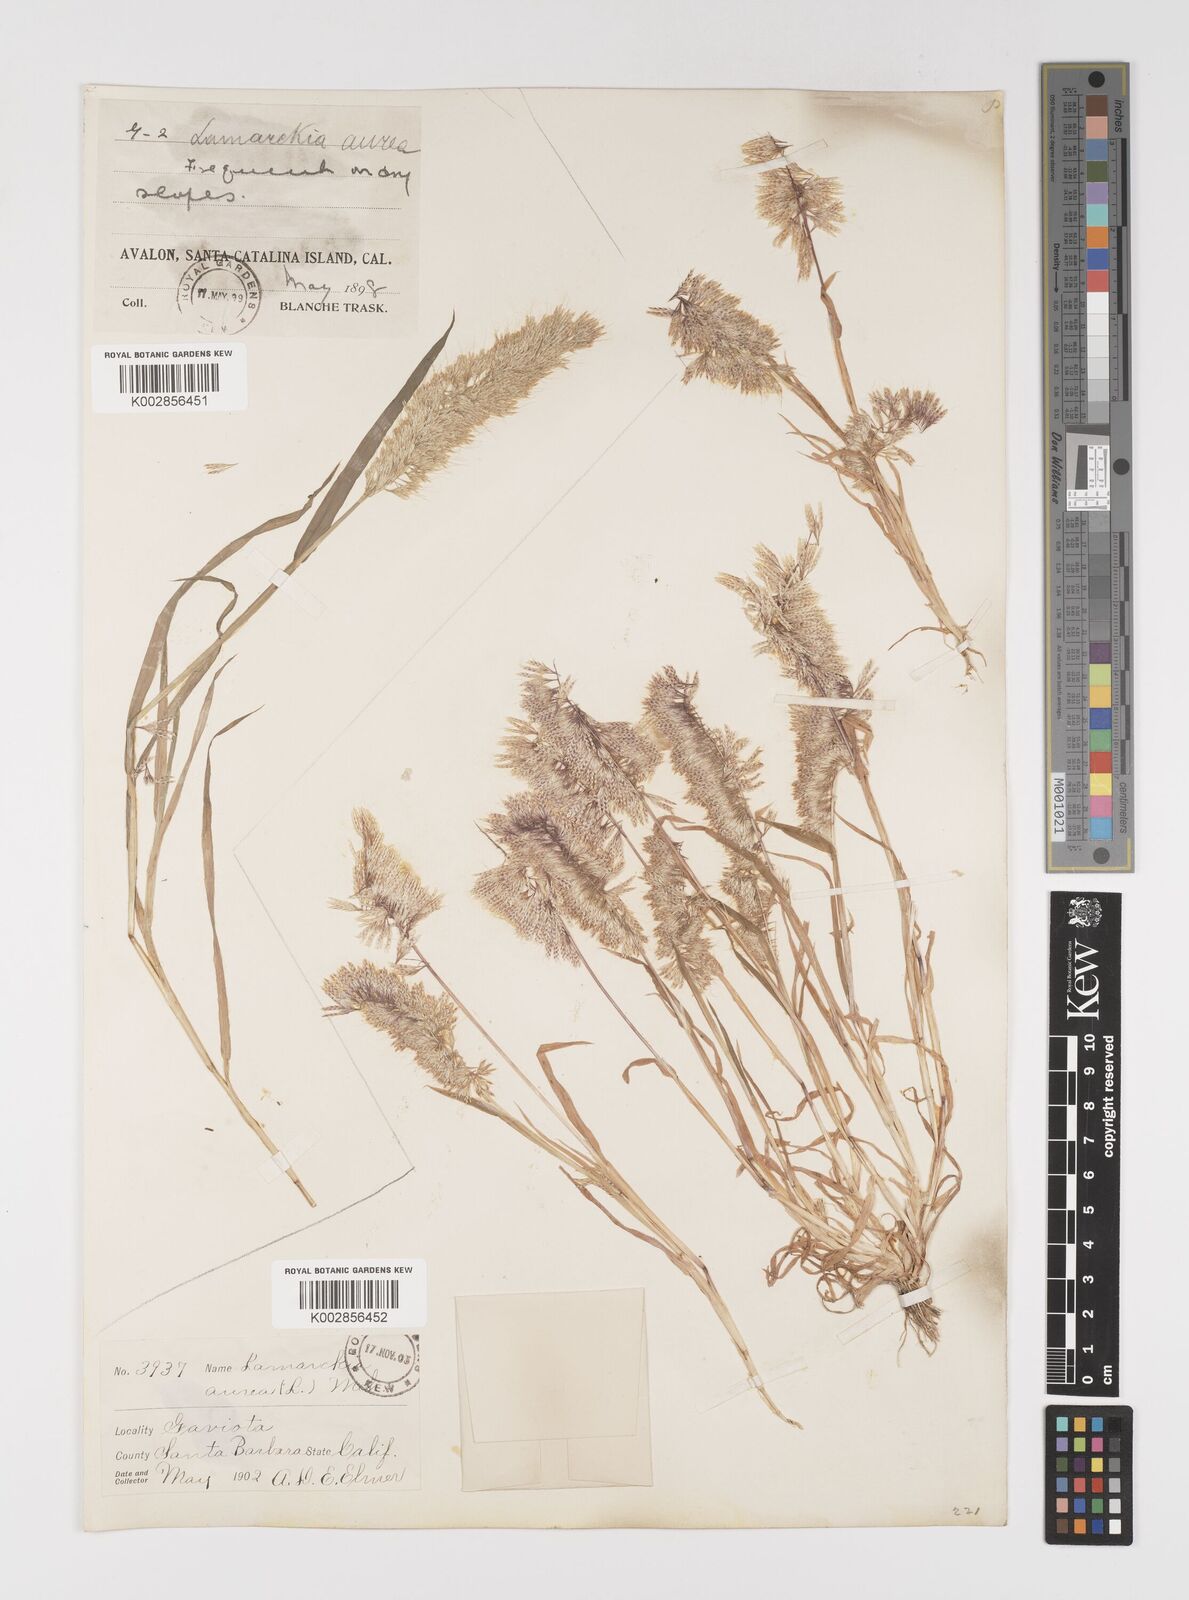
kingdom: Plantae
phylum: Tracheophyta
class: Liliopsida
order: Poales
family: Poaceae
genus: Lamarckia
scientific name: Lamarckia aurea
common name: Golden dog's-tail
